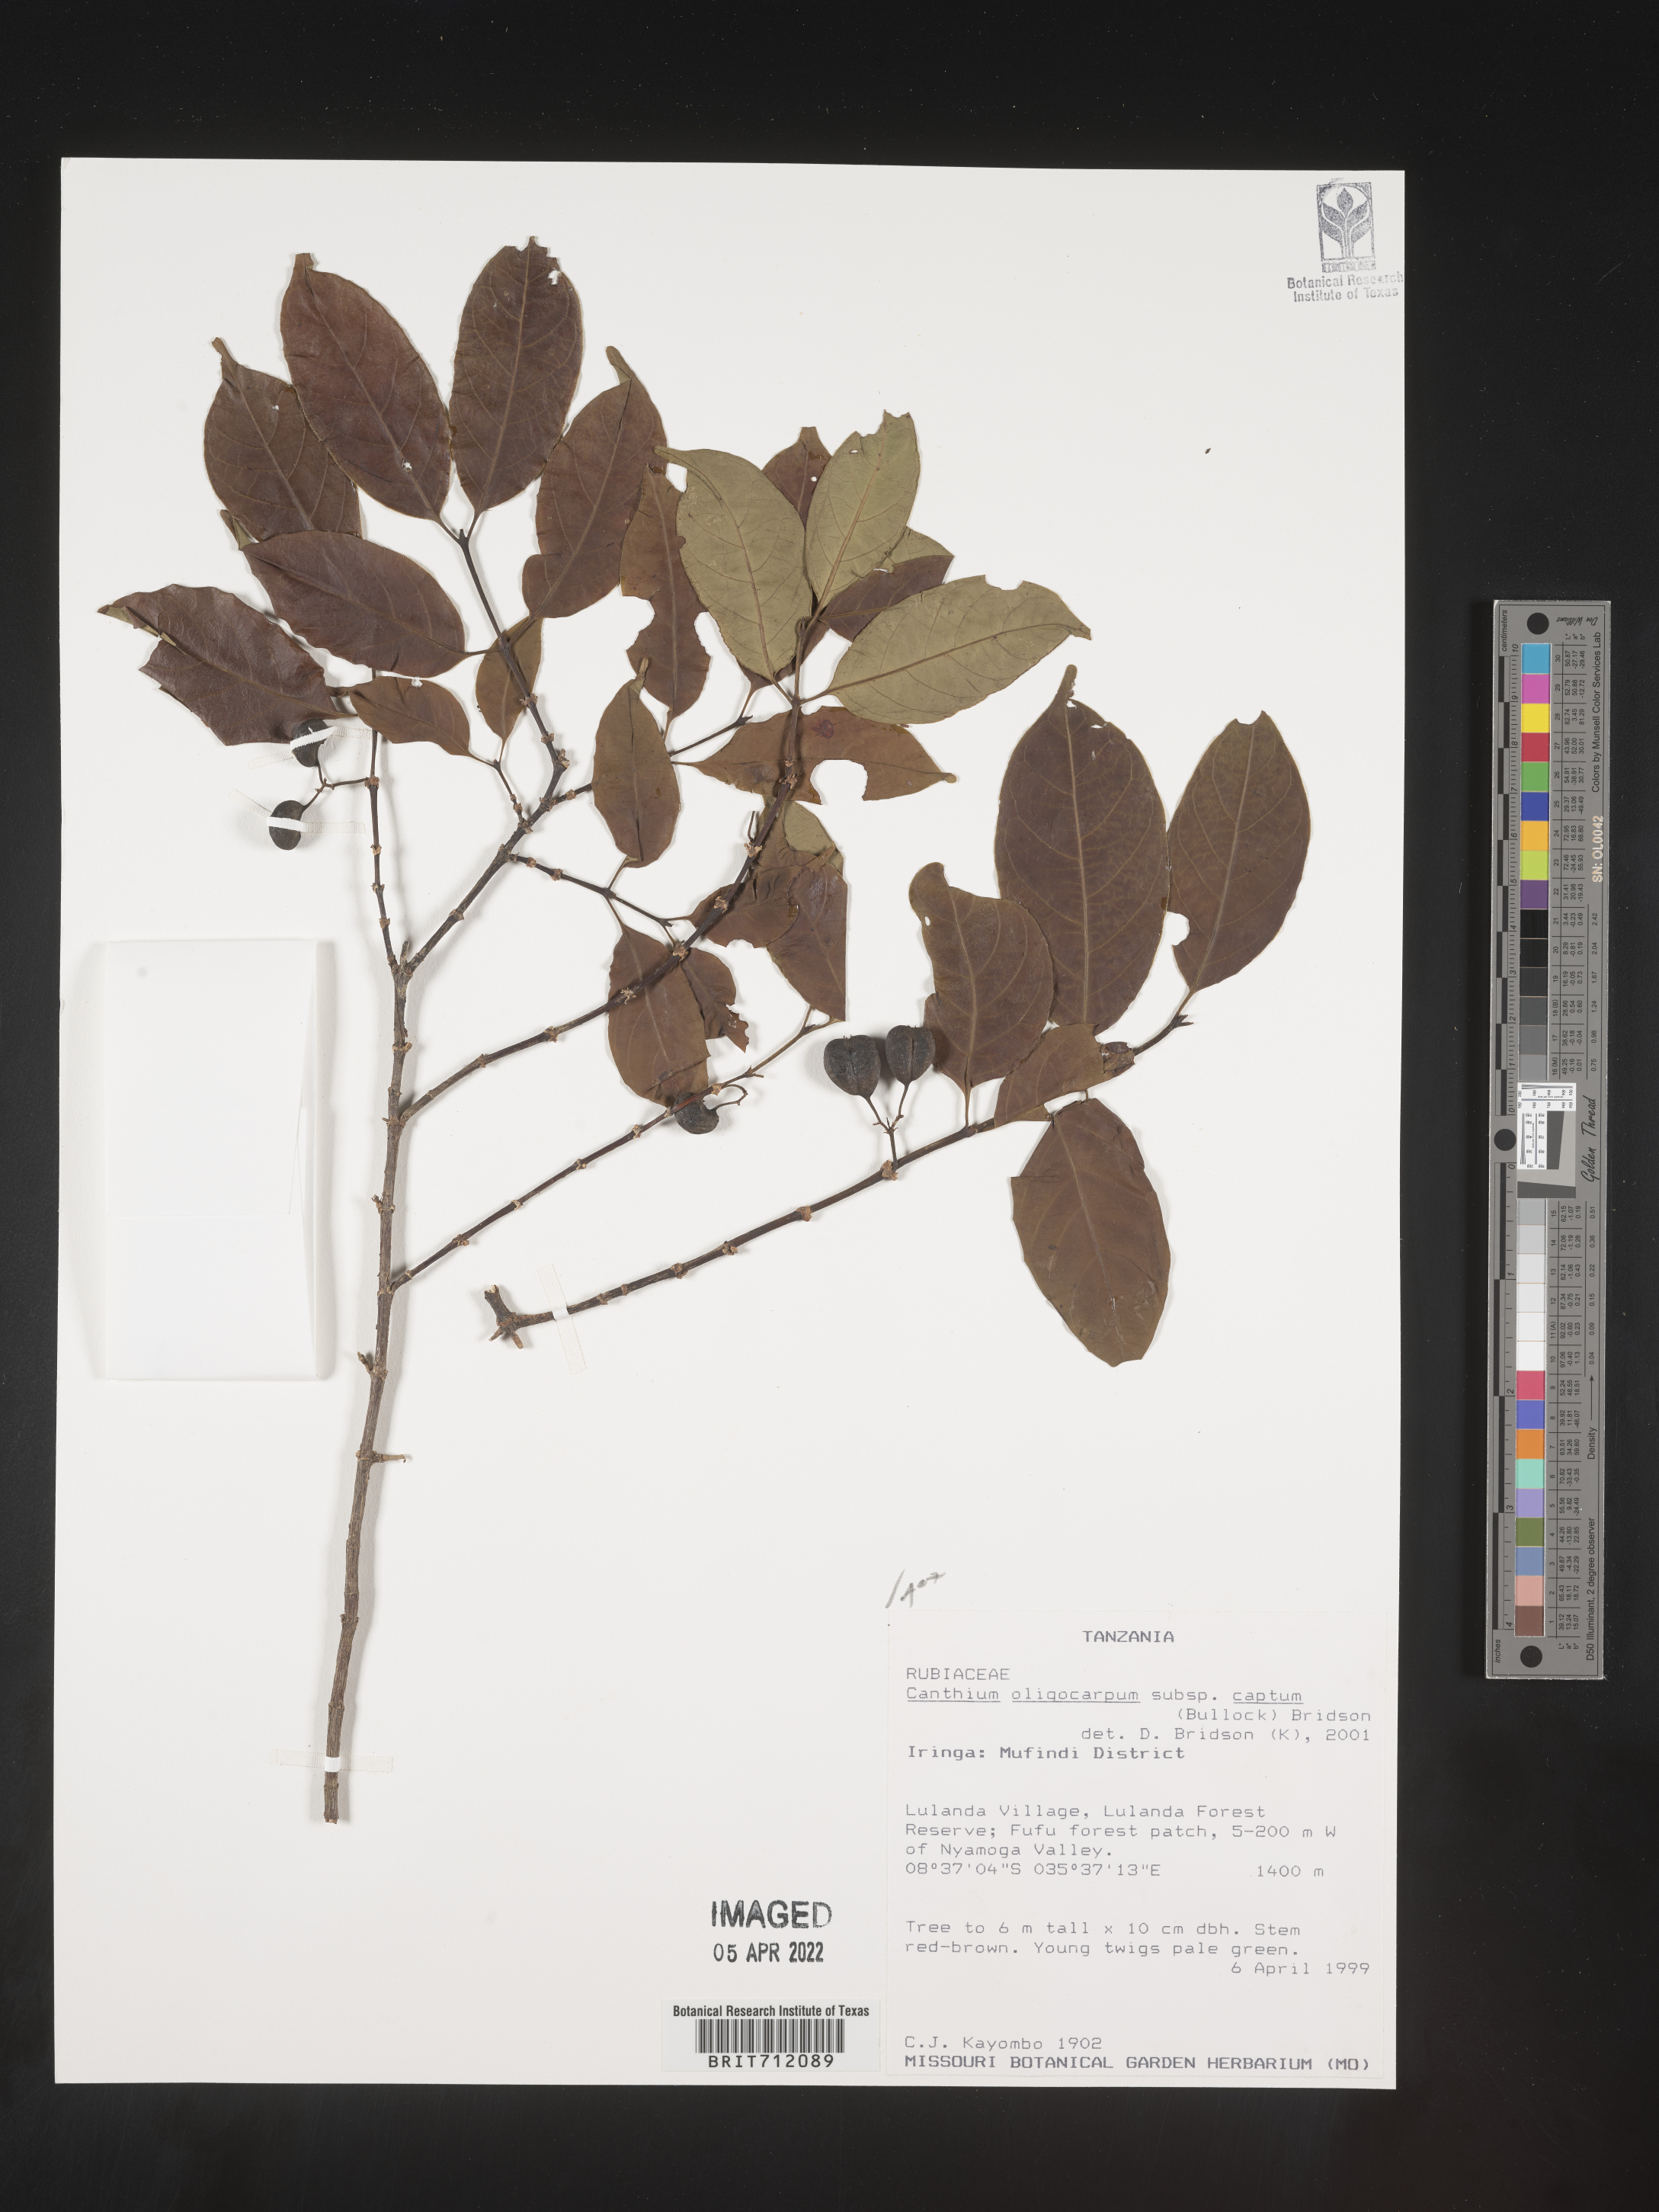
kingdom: Plantae
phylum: Tracheophyta
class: Magnoliopsida
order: Gentianales
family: Rubiaceae
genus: Canthium
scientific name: Canthium
